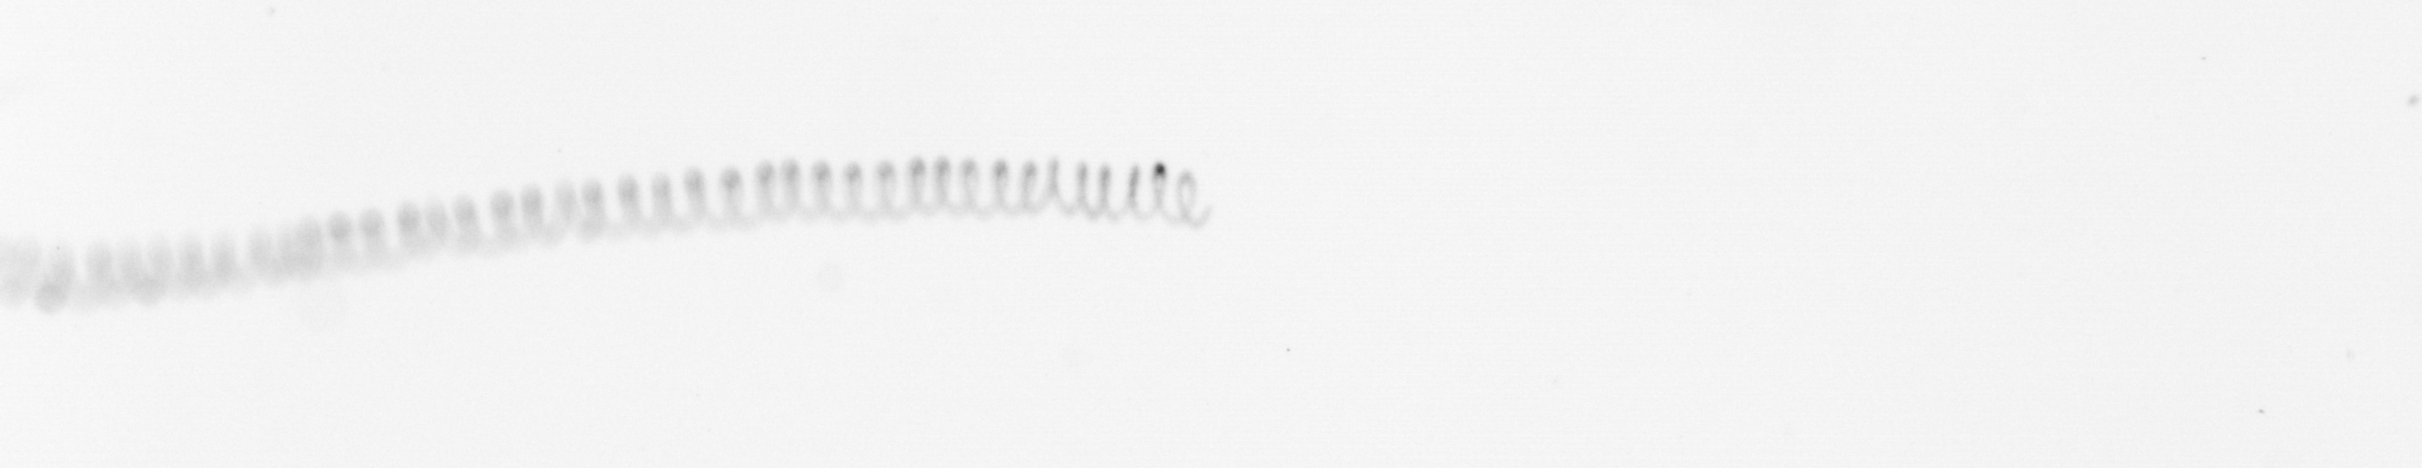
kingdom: Chromista
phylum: Ochrophyta
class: Bacillariophyceae
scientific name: Bacillariophyceae
